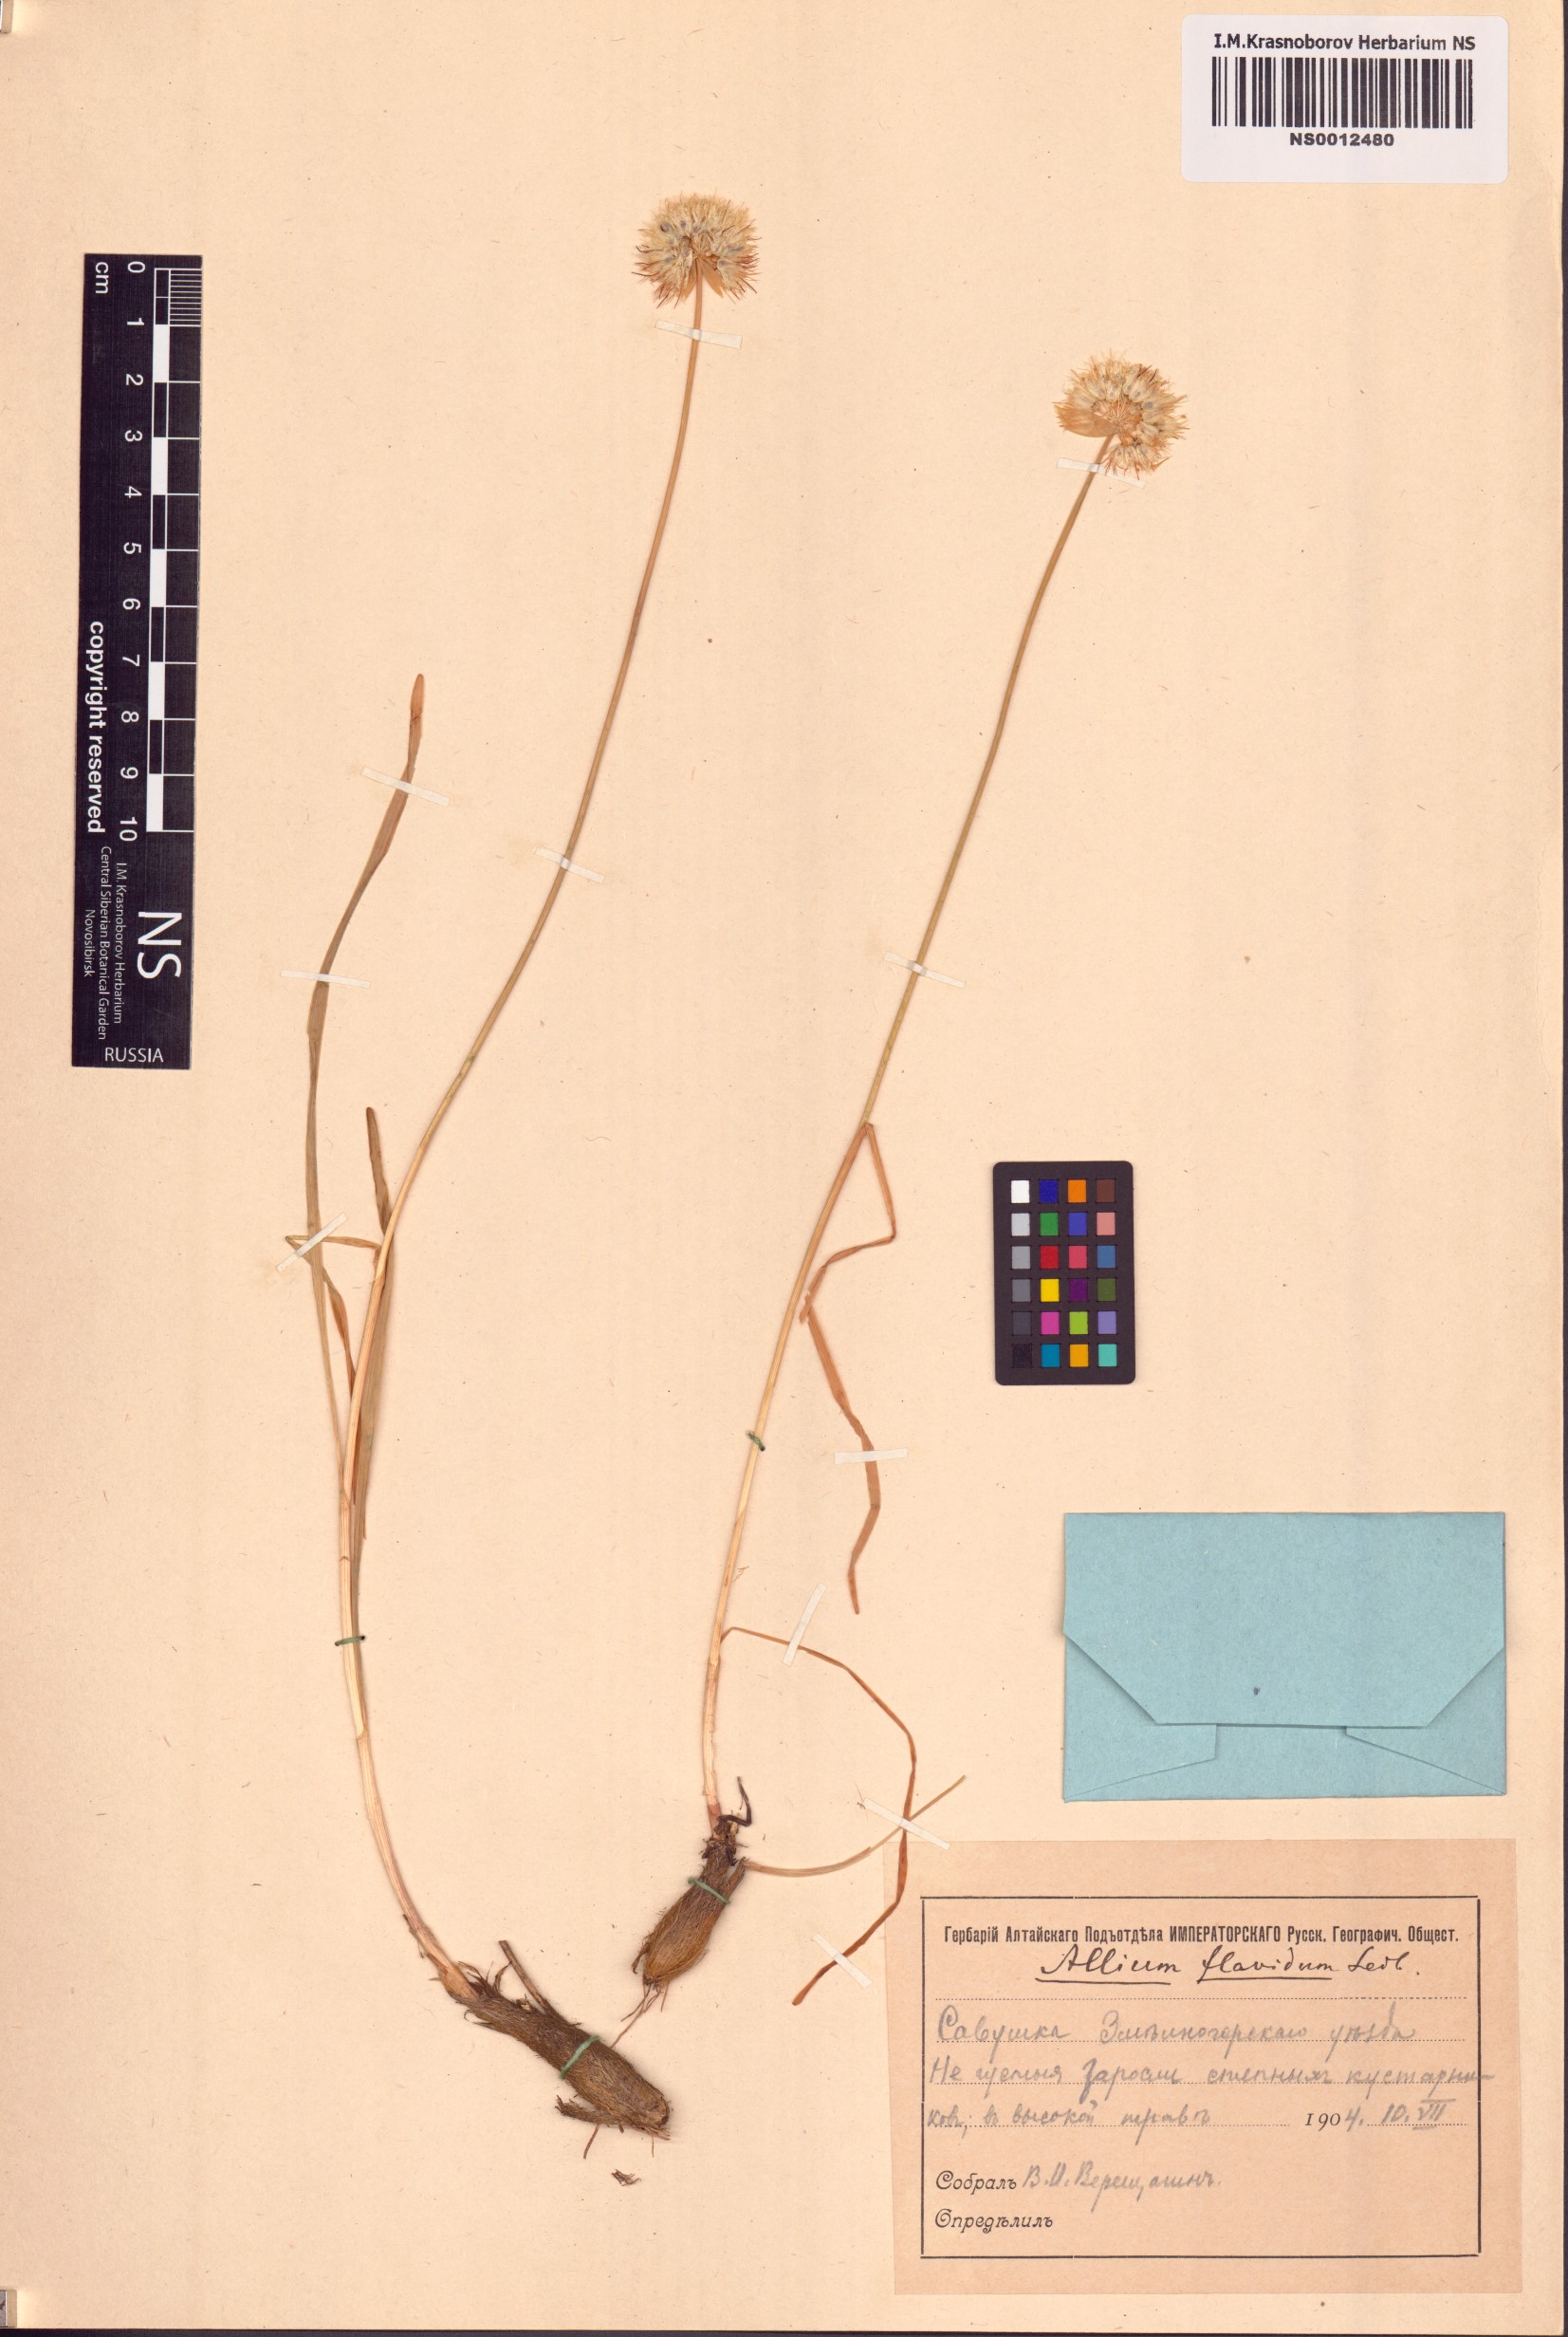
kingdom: Plantae
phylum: Tracheophyta
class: Liliopsida
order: Asparagales
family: Amaryllidaceae
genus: Allium
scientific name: Allium flavidum
